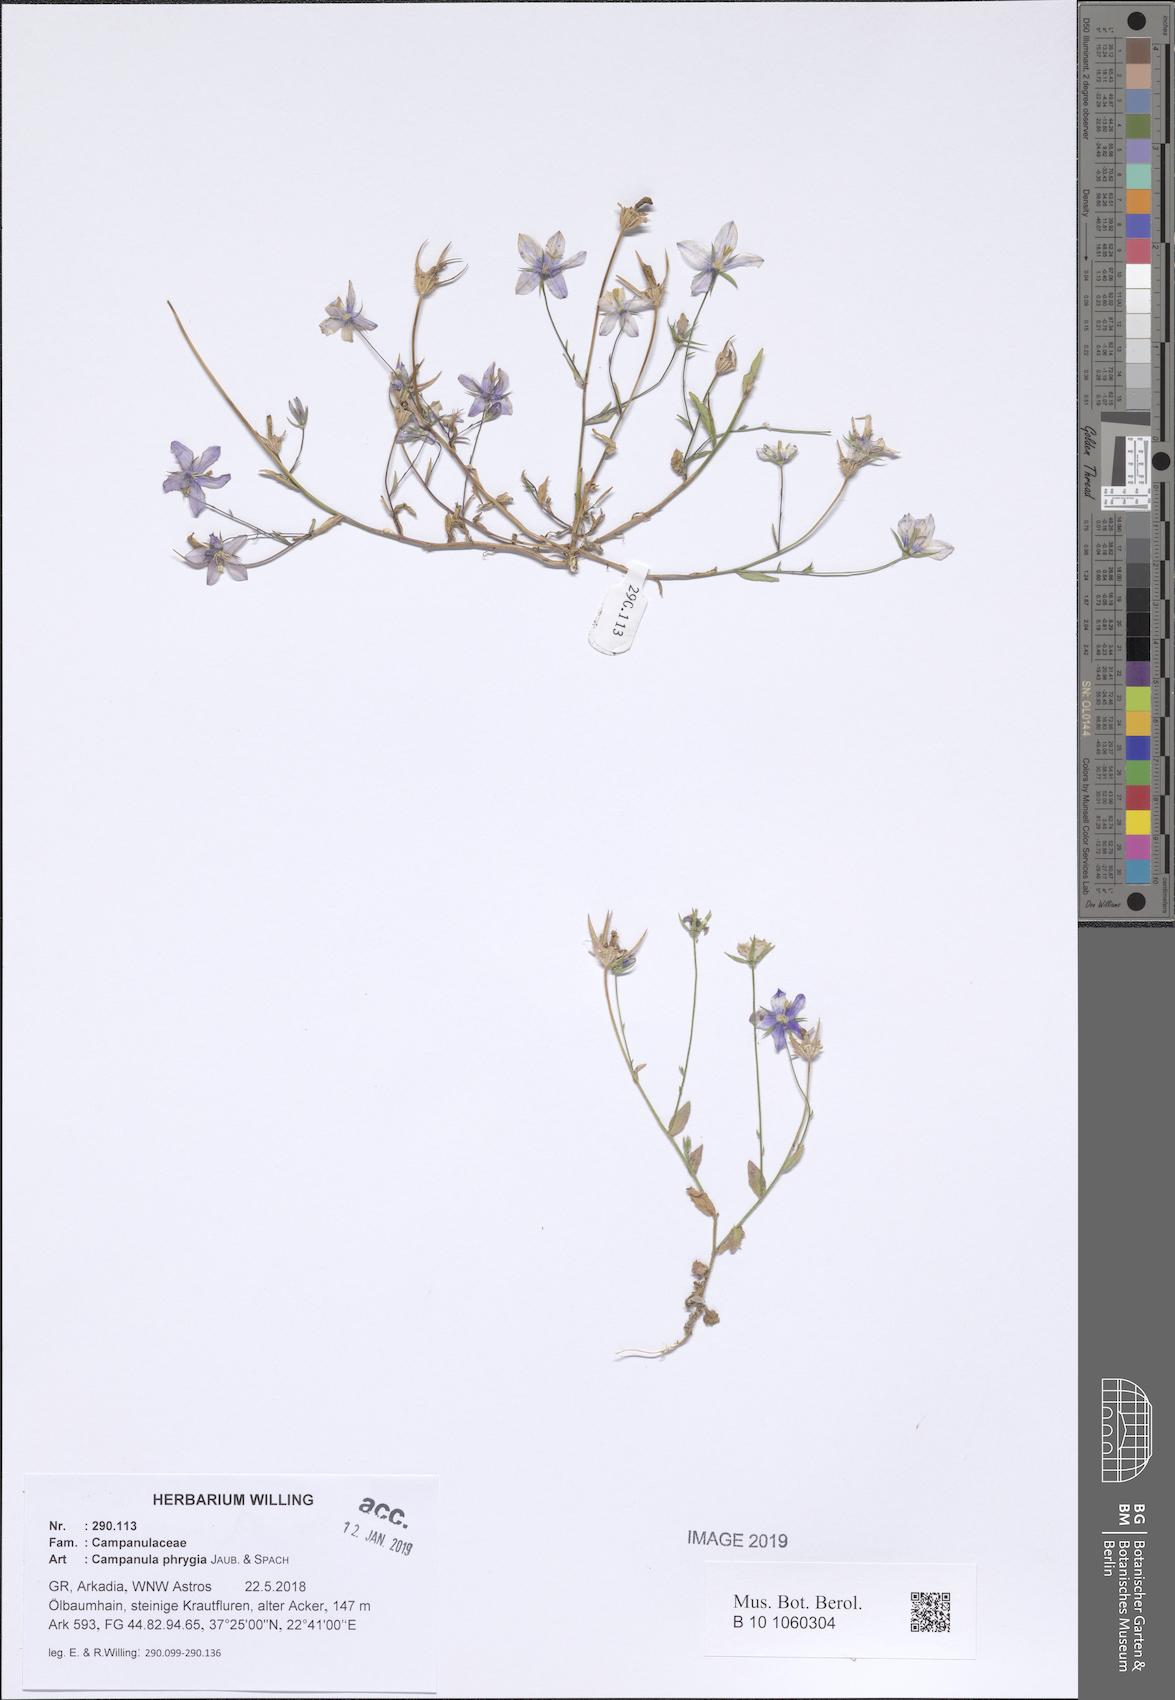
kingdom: Plantae
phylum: Tracheophyta
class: Magnoliopsida
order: Asterales
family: Campanulaceae
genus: Campanula
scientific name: Campanula phrygia
